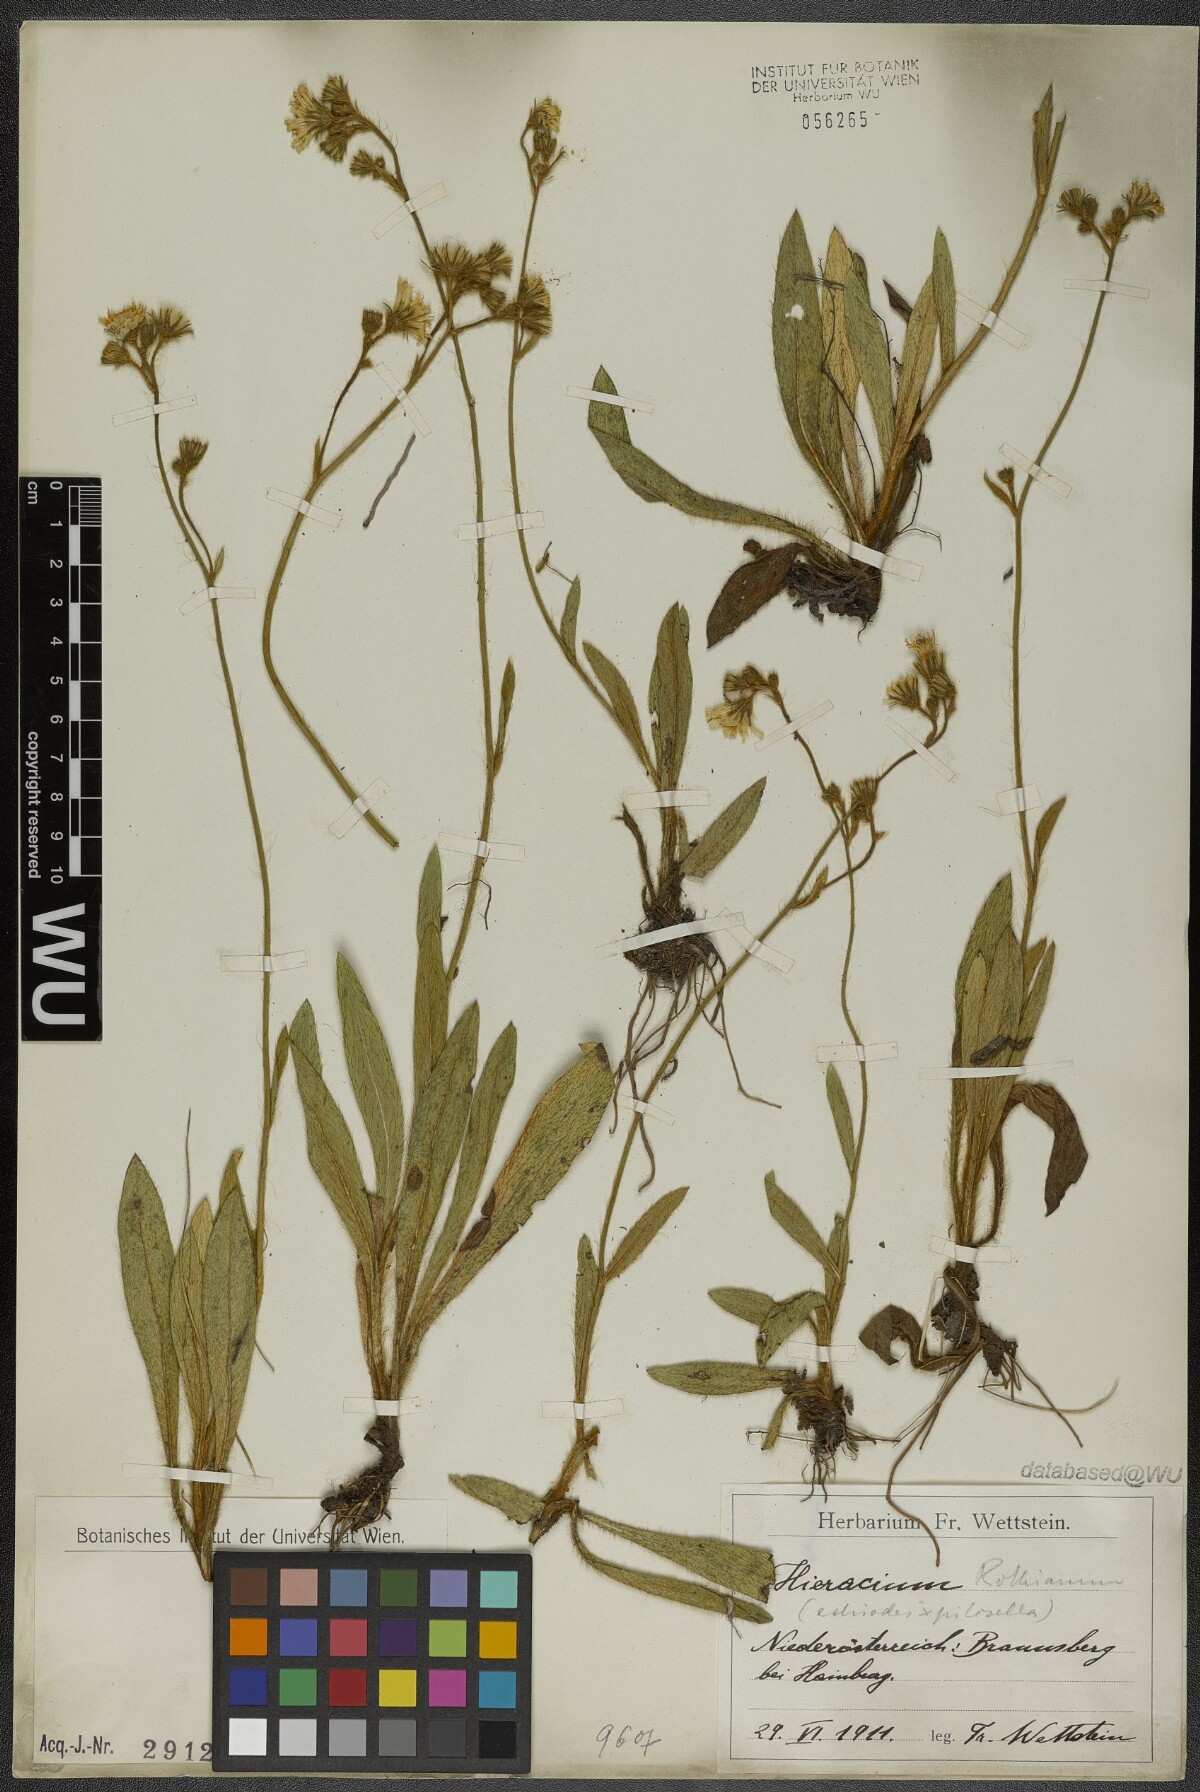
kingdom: Plantae
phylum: Tracheophyta
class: Magnoliopsida
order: Asterales
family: Asteraceae
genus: Pilosella
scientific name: Pilosella rothiana
